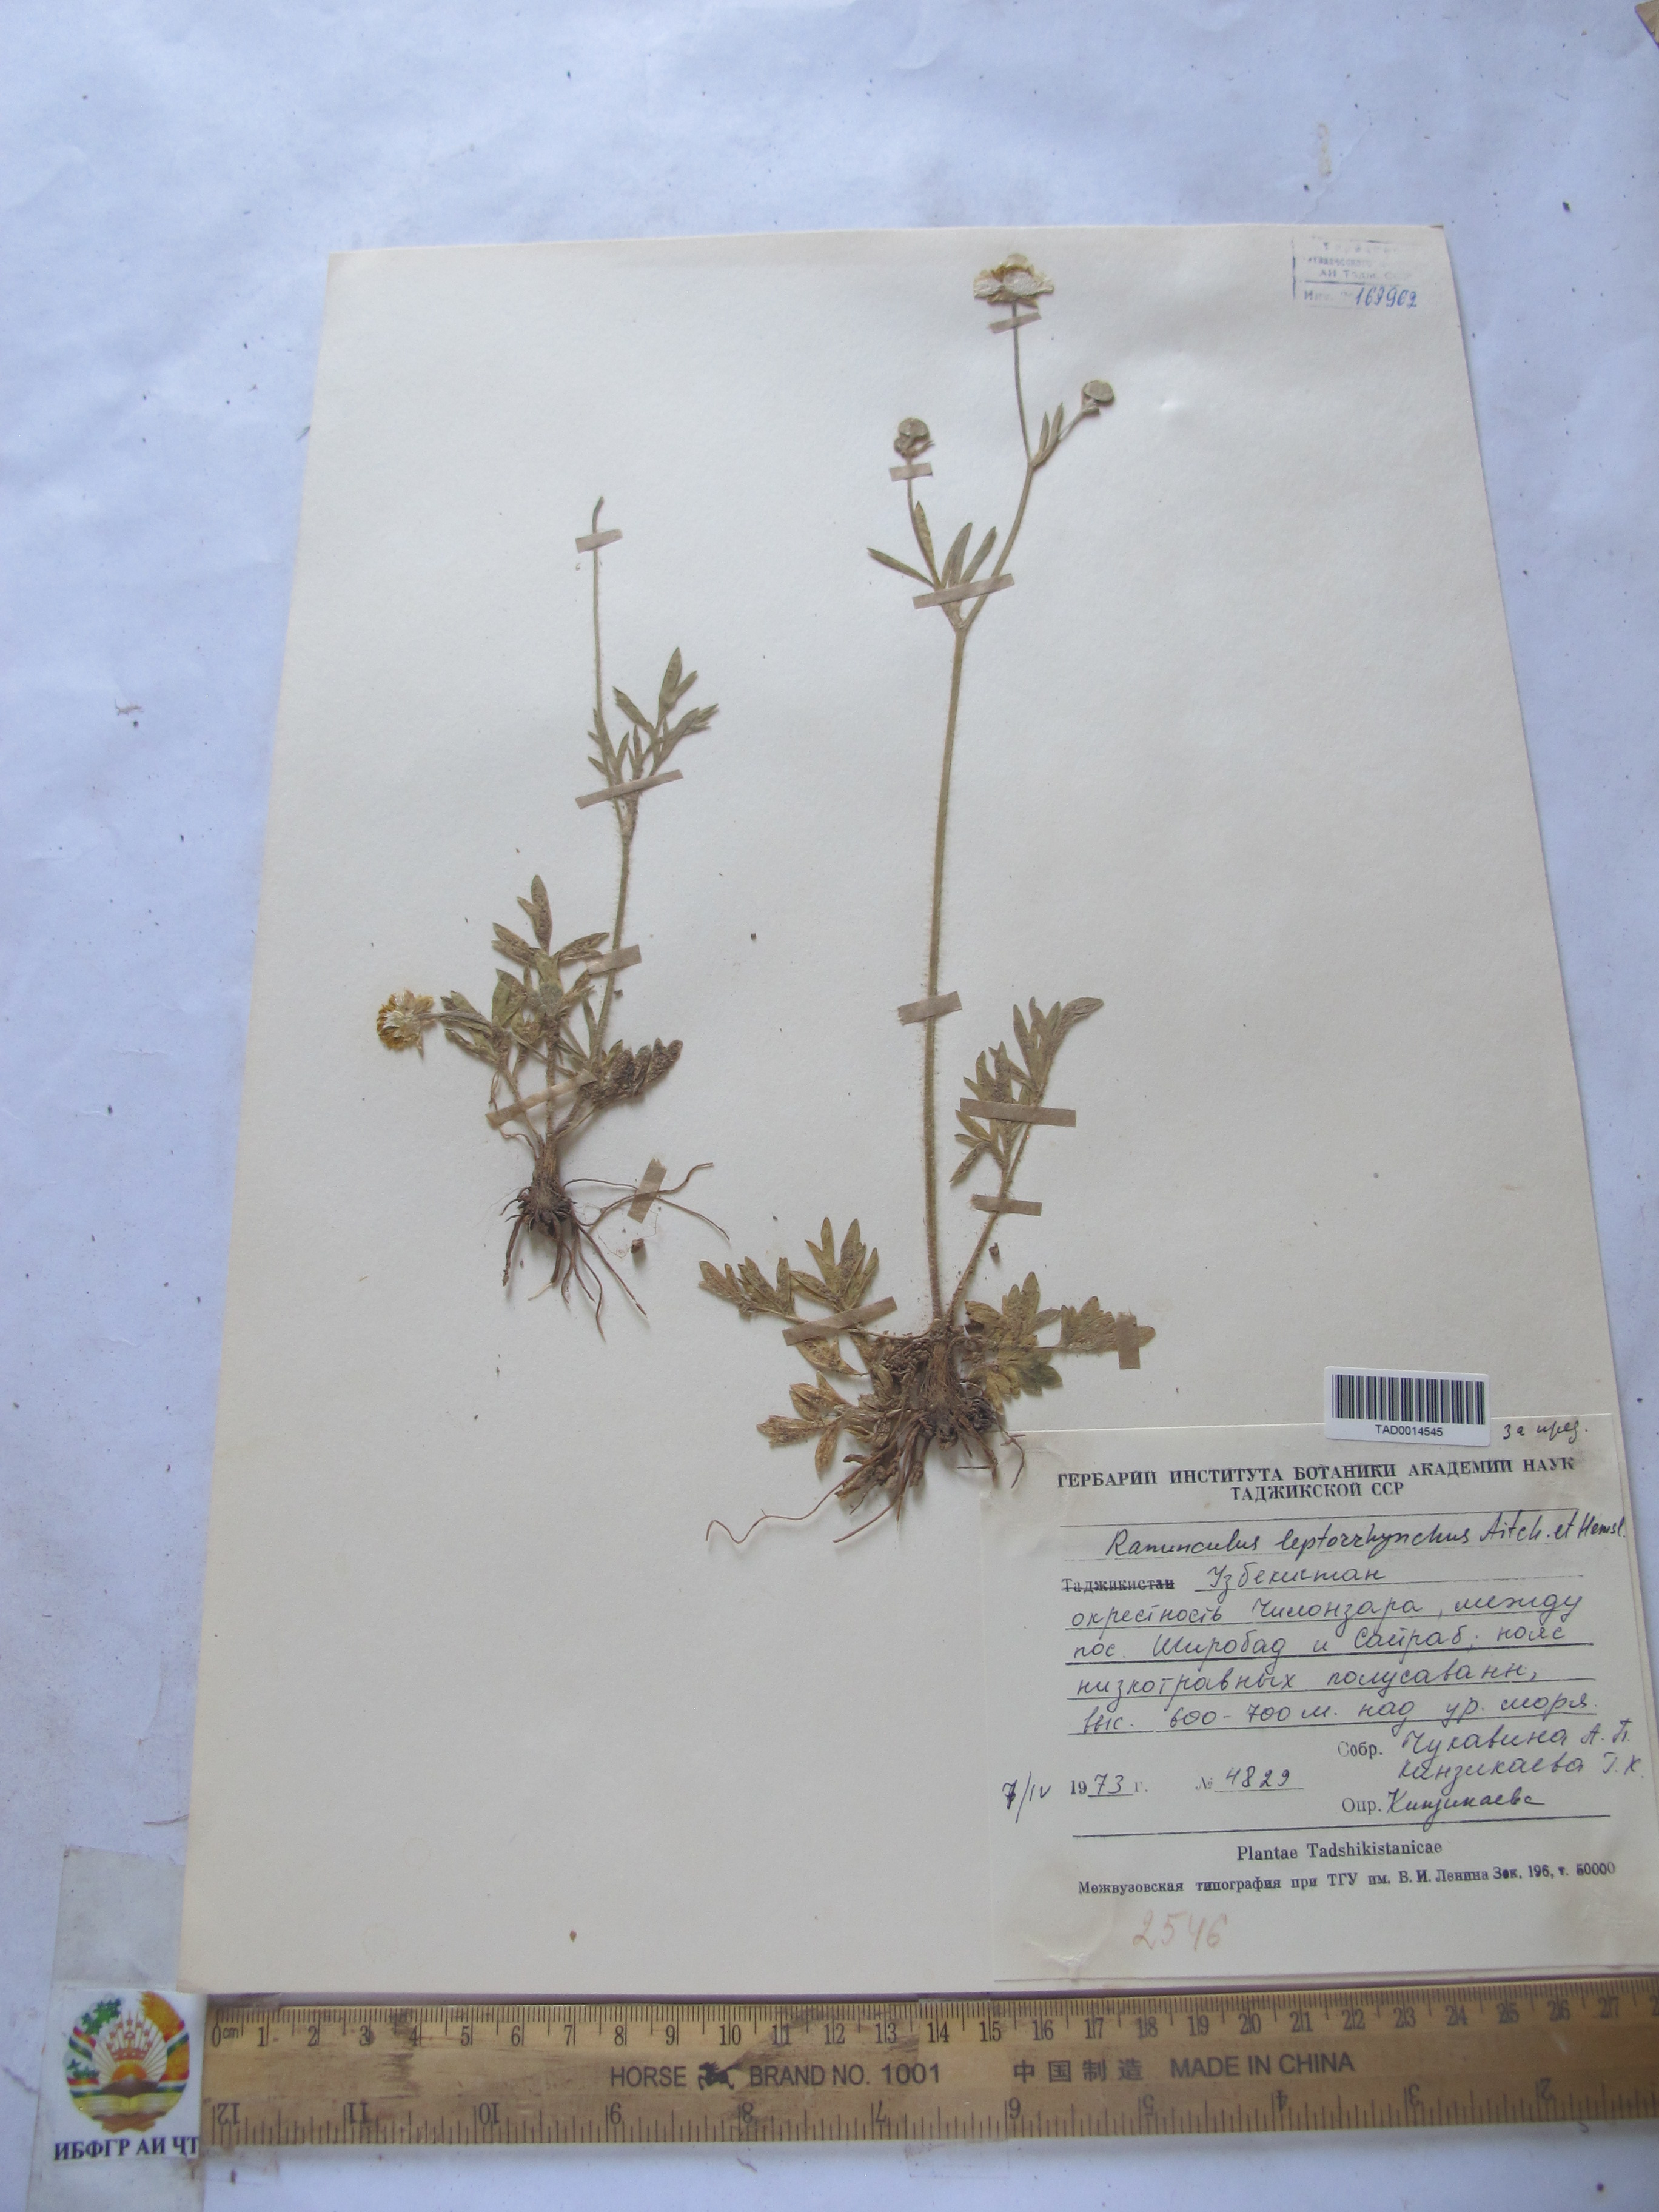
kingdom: Plantae
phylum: Tracheophyta
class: Magnoliopsida
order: Ranunculales
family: Ranunculaceae
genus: Ranunculus
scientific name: Ranunculus leptorrhynchus
